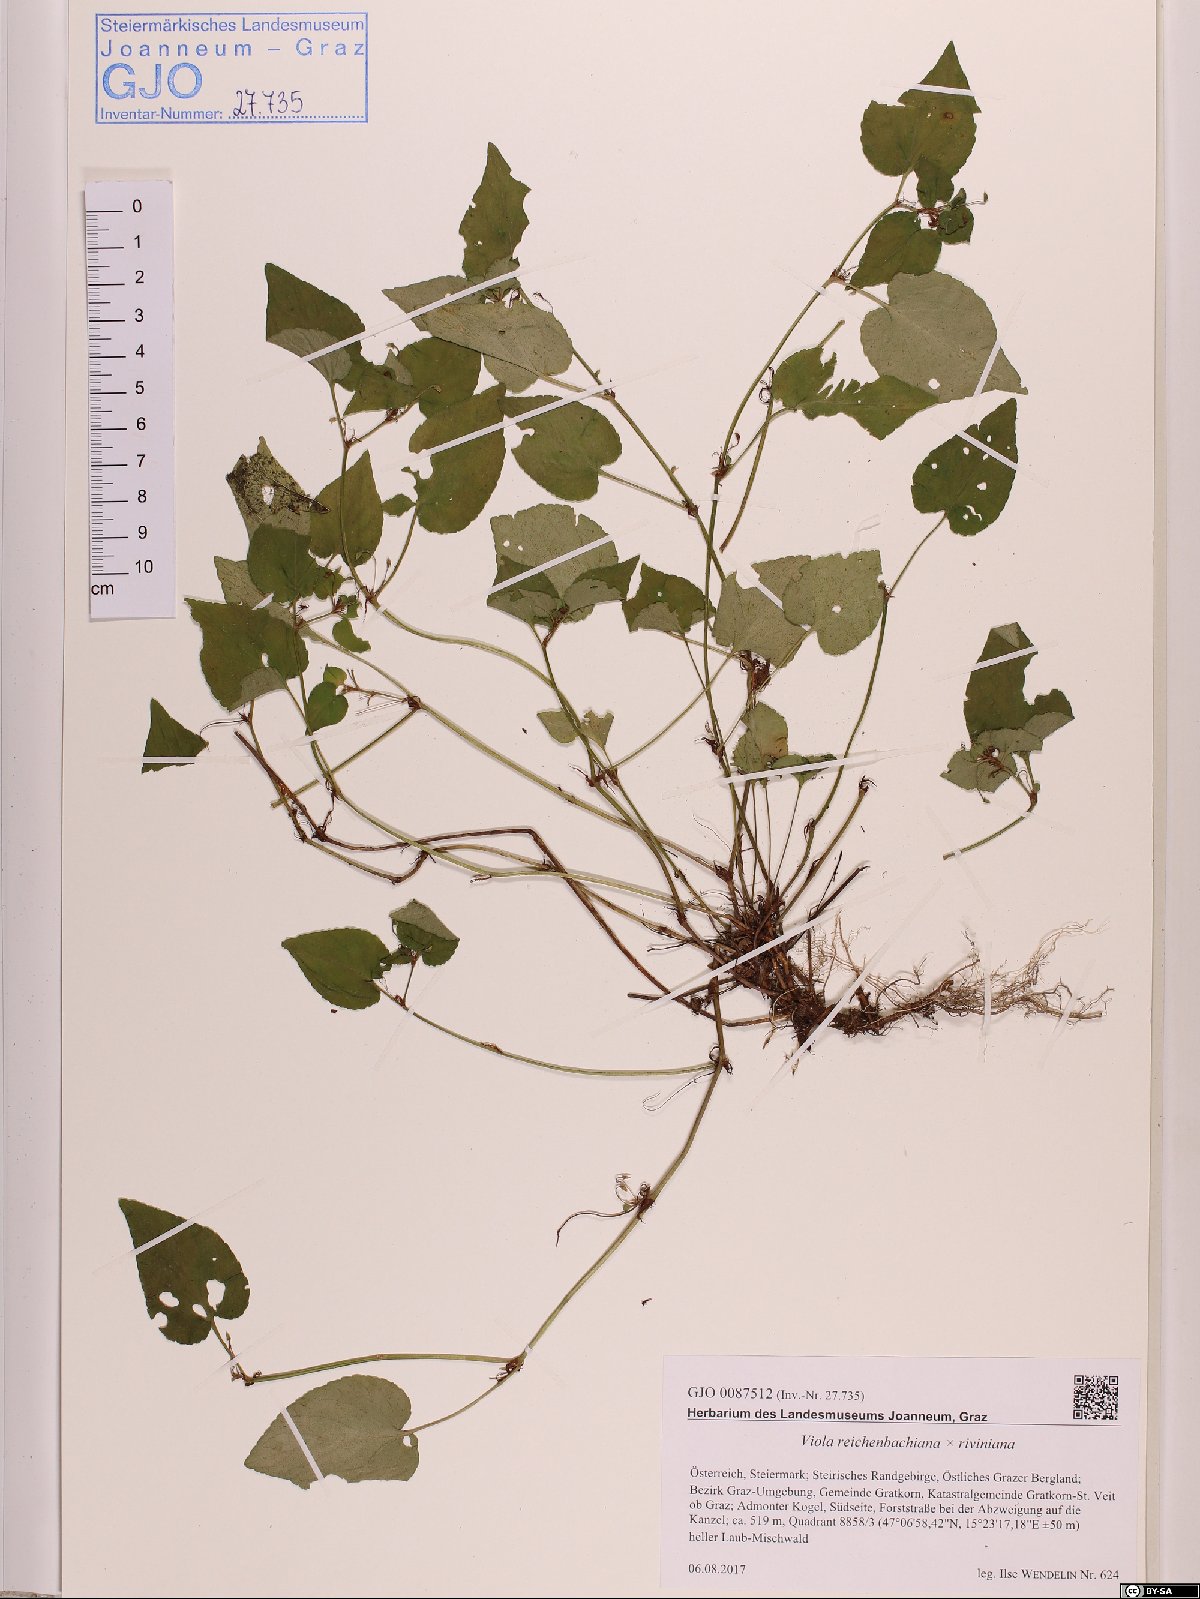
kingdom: Plantae
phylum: Tracheophyta
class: Magnoliopsida
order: Malpighiales
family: Violaceae
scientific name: Violaceae
